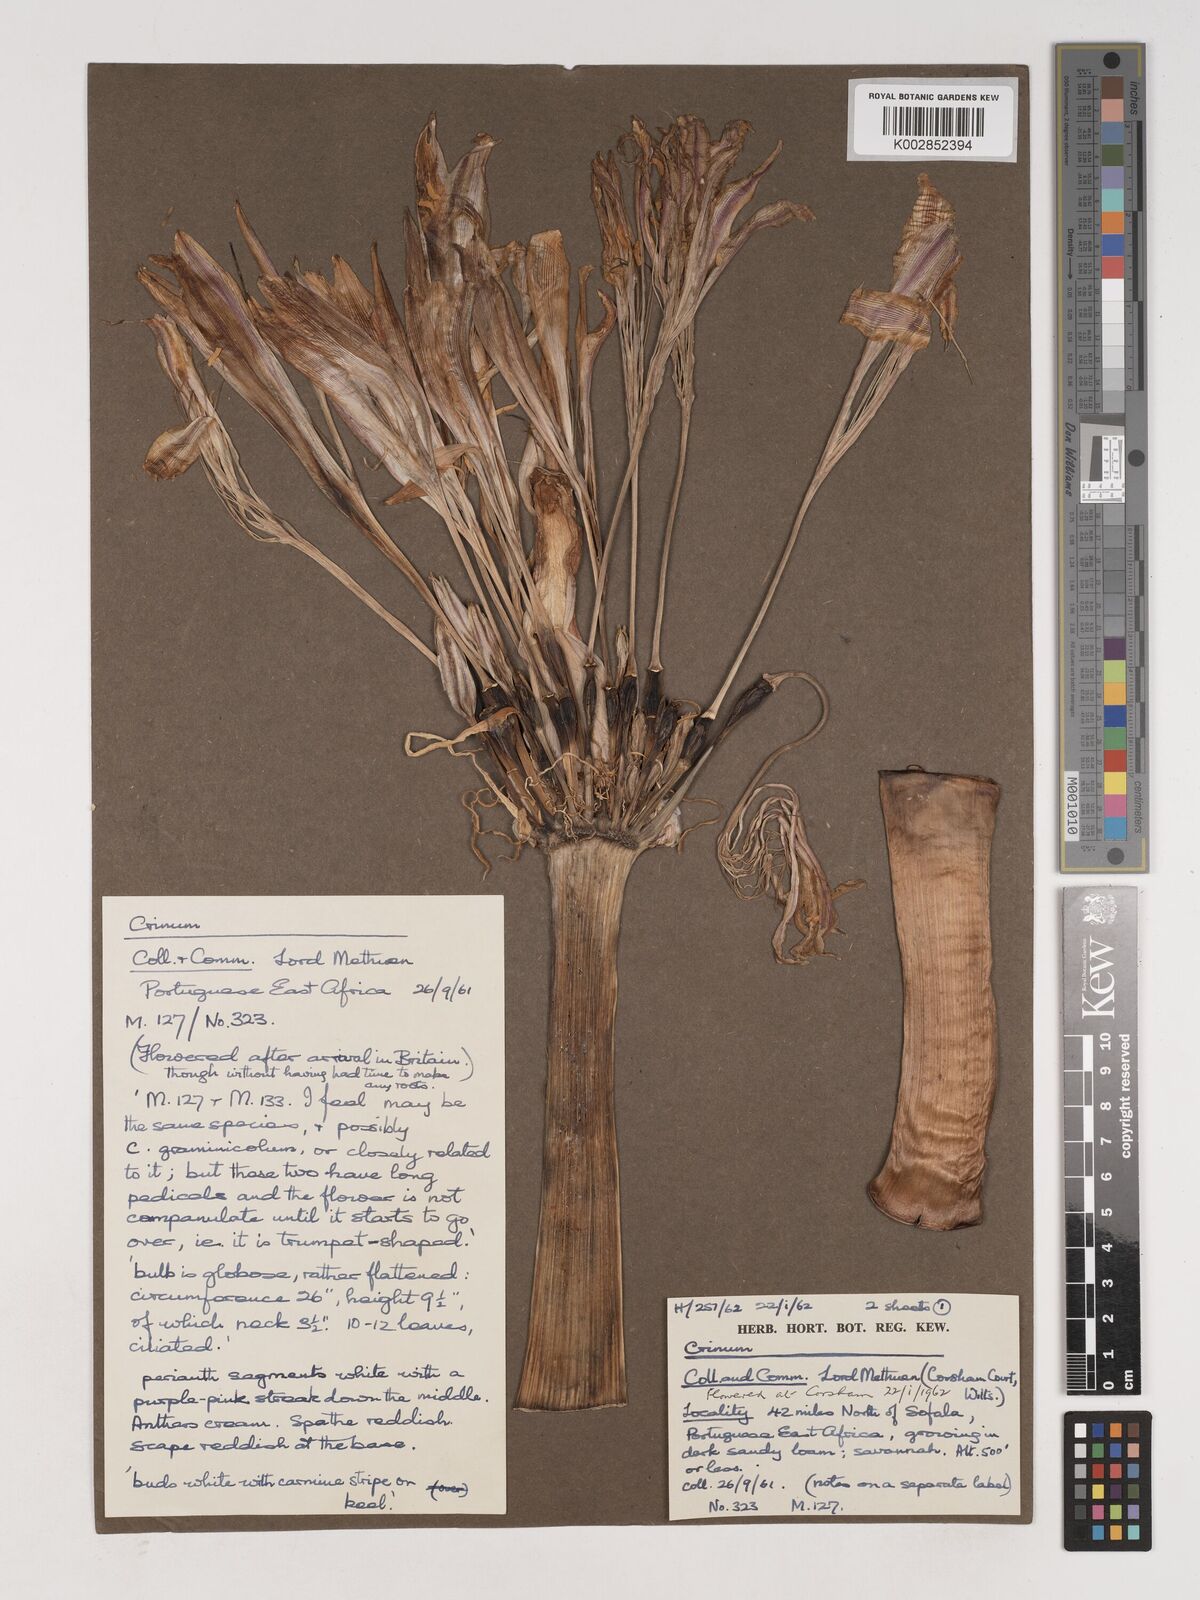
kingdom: Plantae
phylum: Tracheophyta
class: Liliopsida
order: Asparagales
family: Amaryllidaceae
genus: Crinum
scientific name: Crinum stuhlmannii
